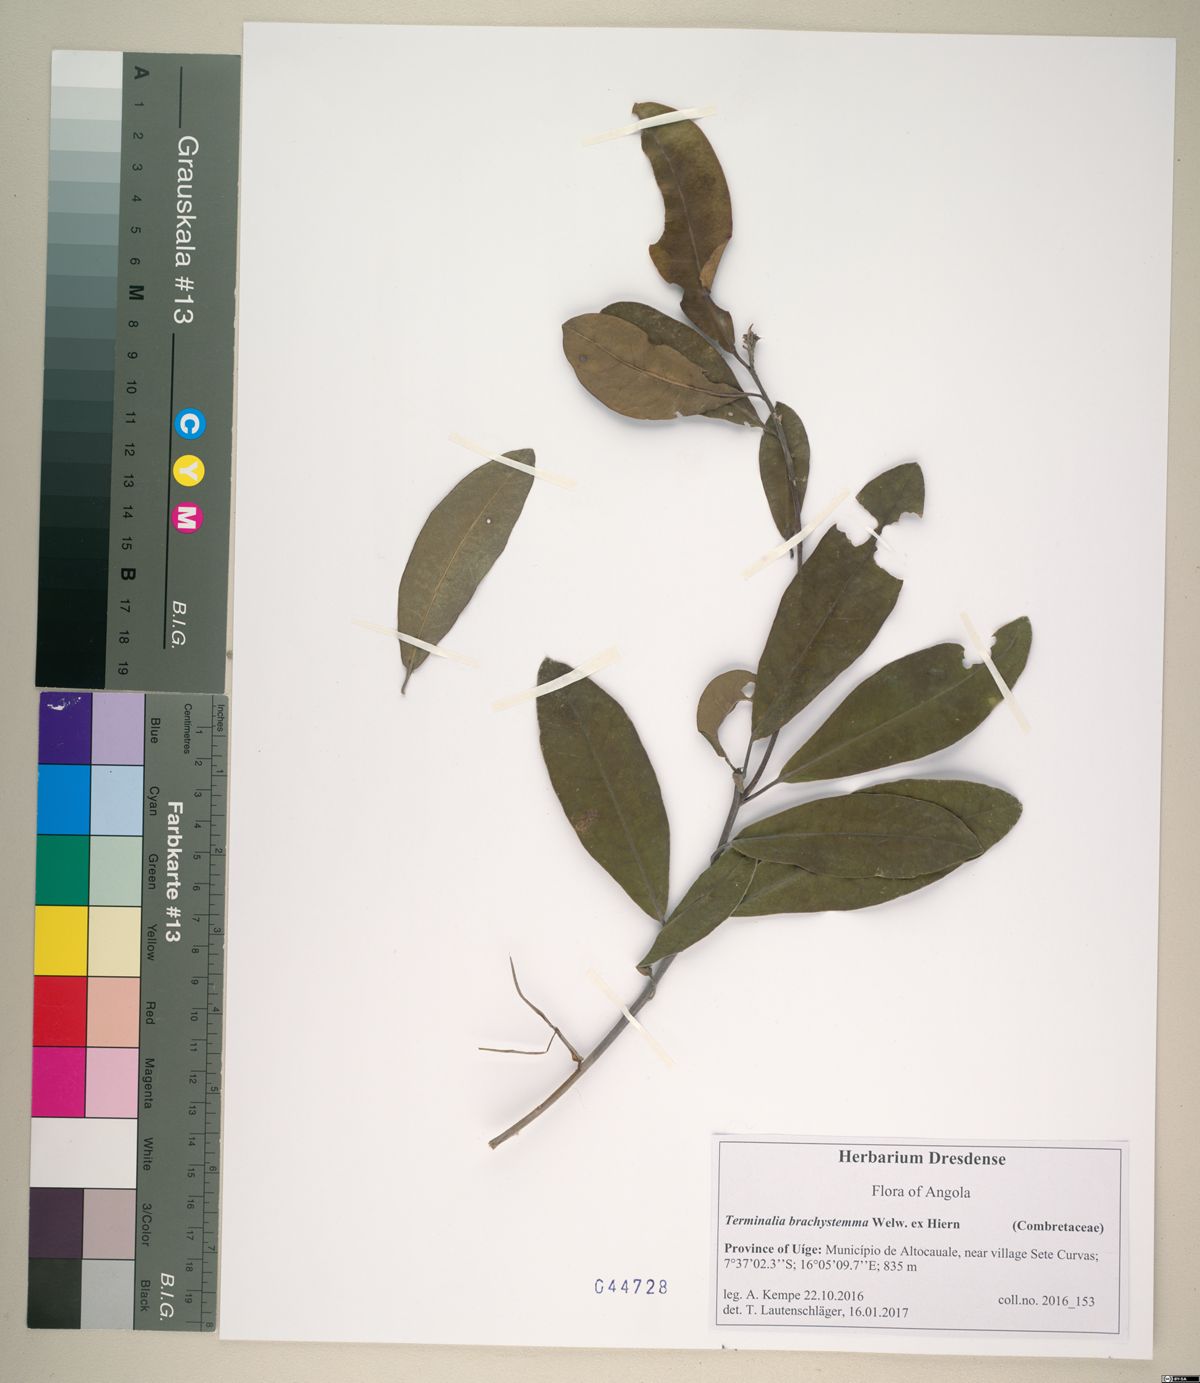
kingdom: Plantae
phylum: Tracheophyta
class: Magnoliopsida
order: Myrtales
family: Combretaceae
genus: Terminalia
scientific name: Terminalia brachystemma
